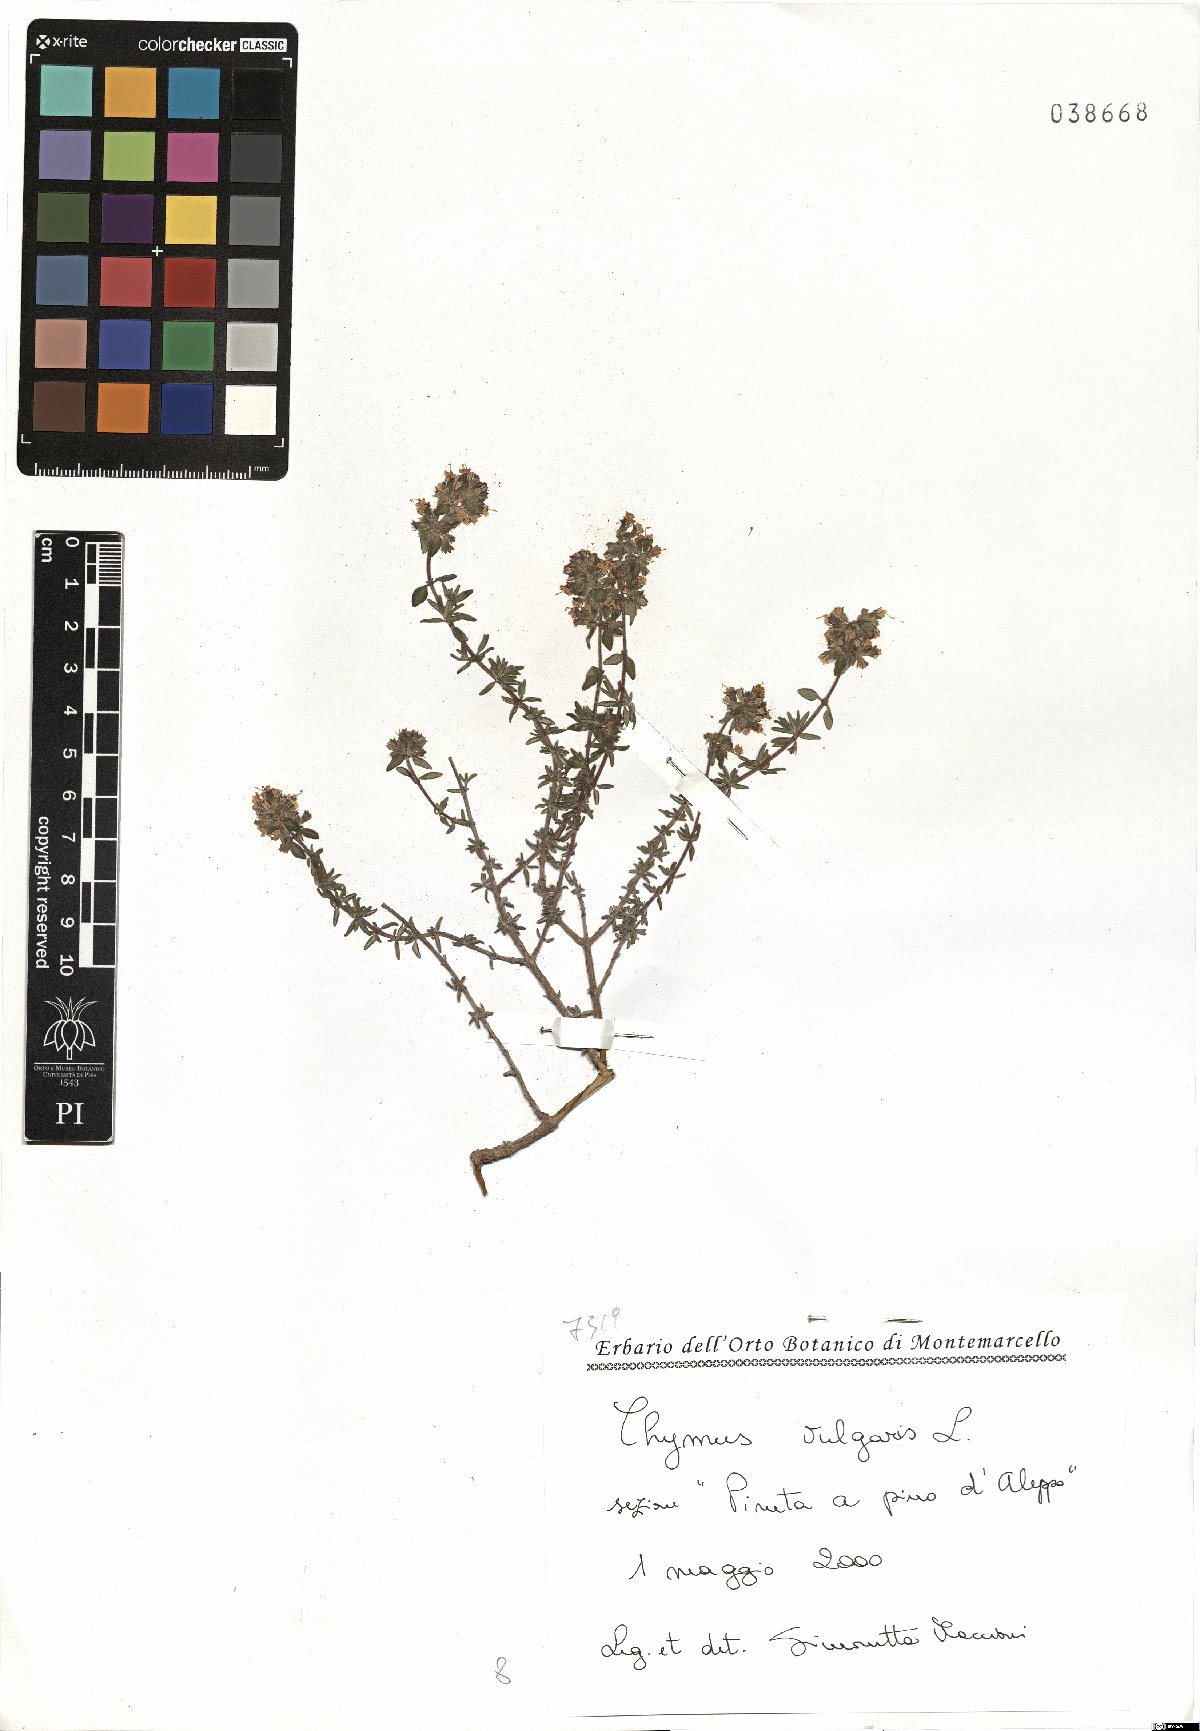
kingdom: Plantae
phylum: Tracheophyta
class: Magnoliopsida
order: Lamiales
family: Lamiaceae
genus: Thymus
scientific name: Thymus vulgaris
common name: Garden thyme
